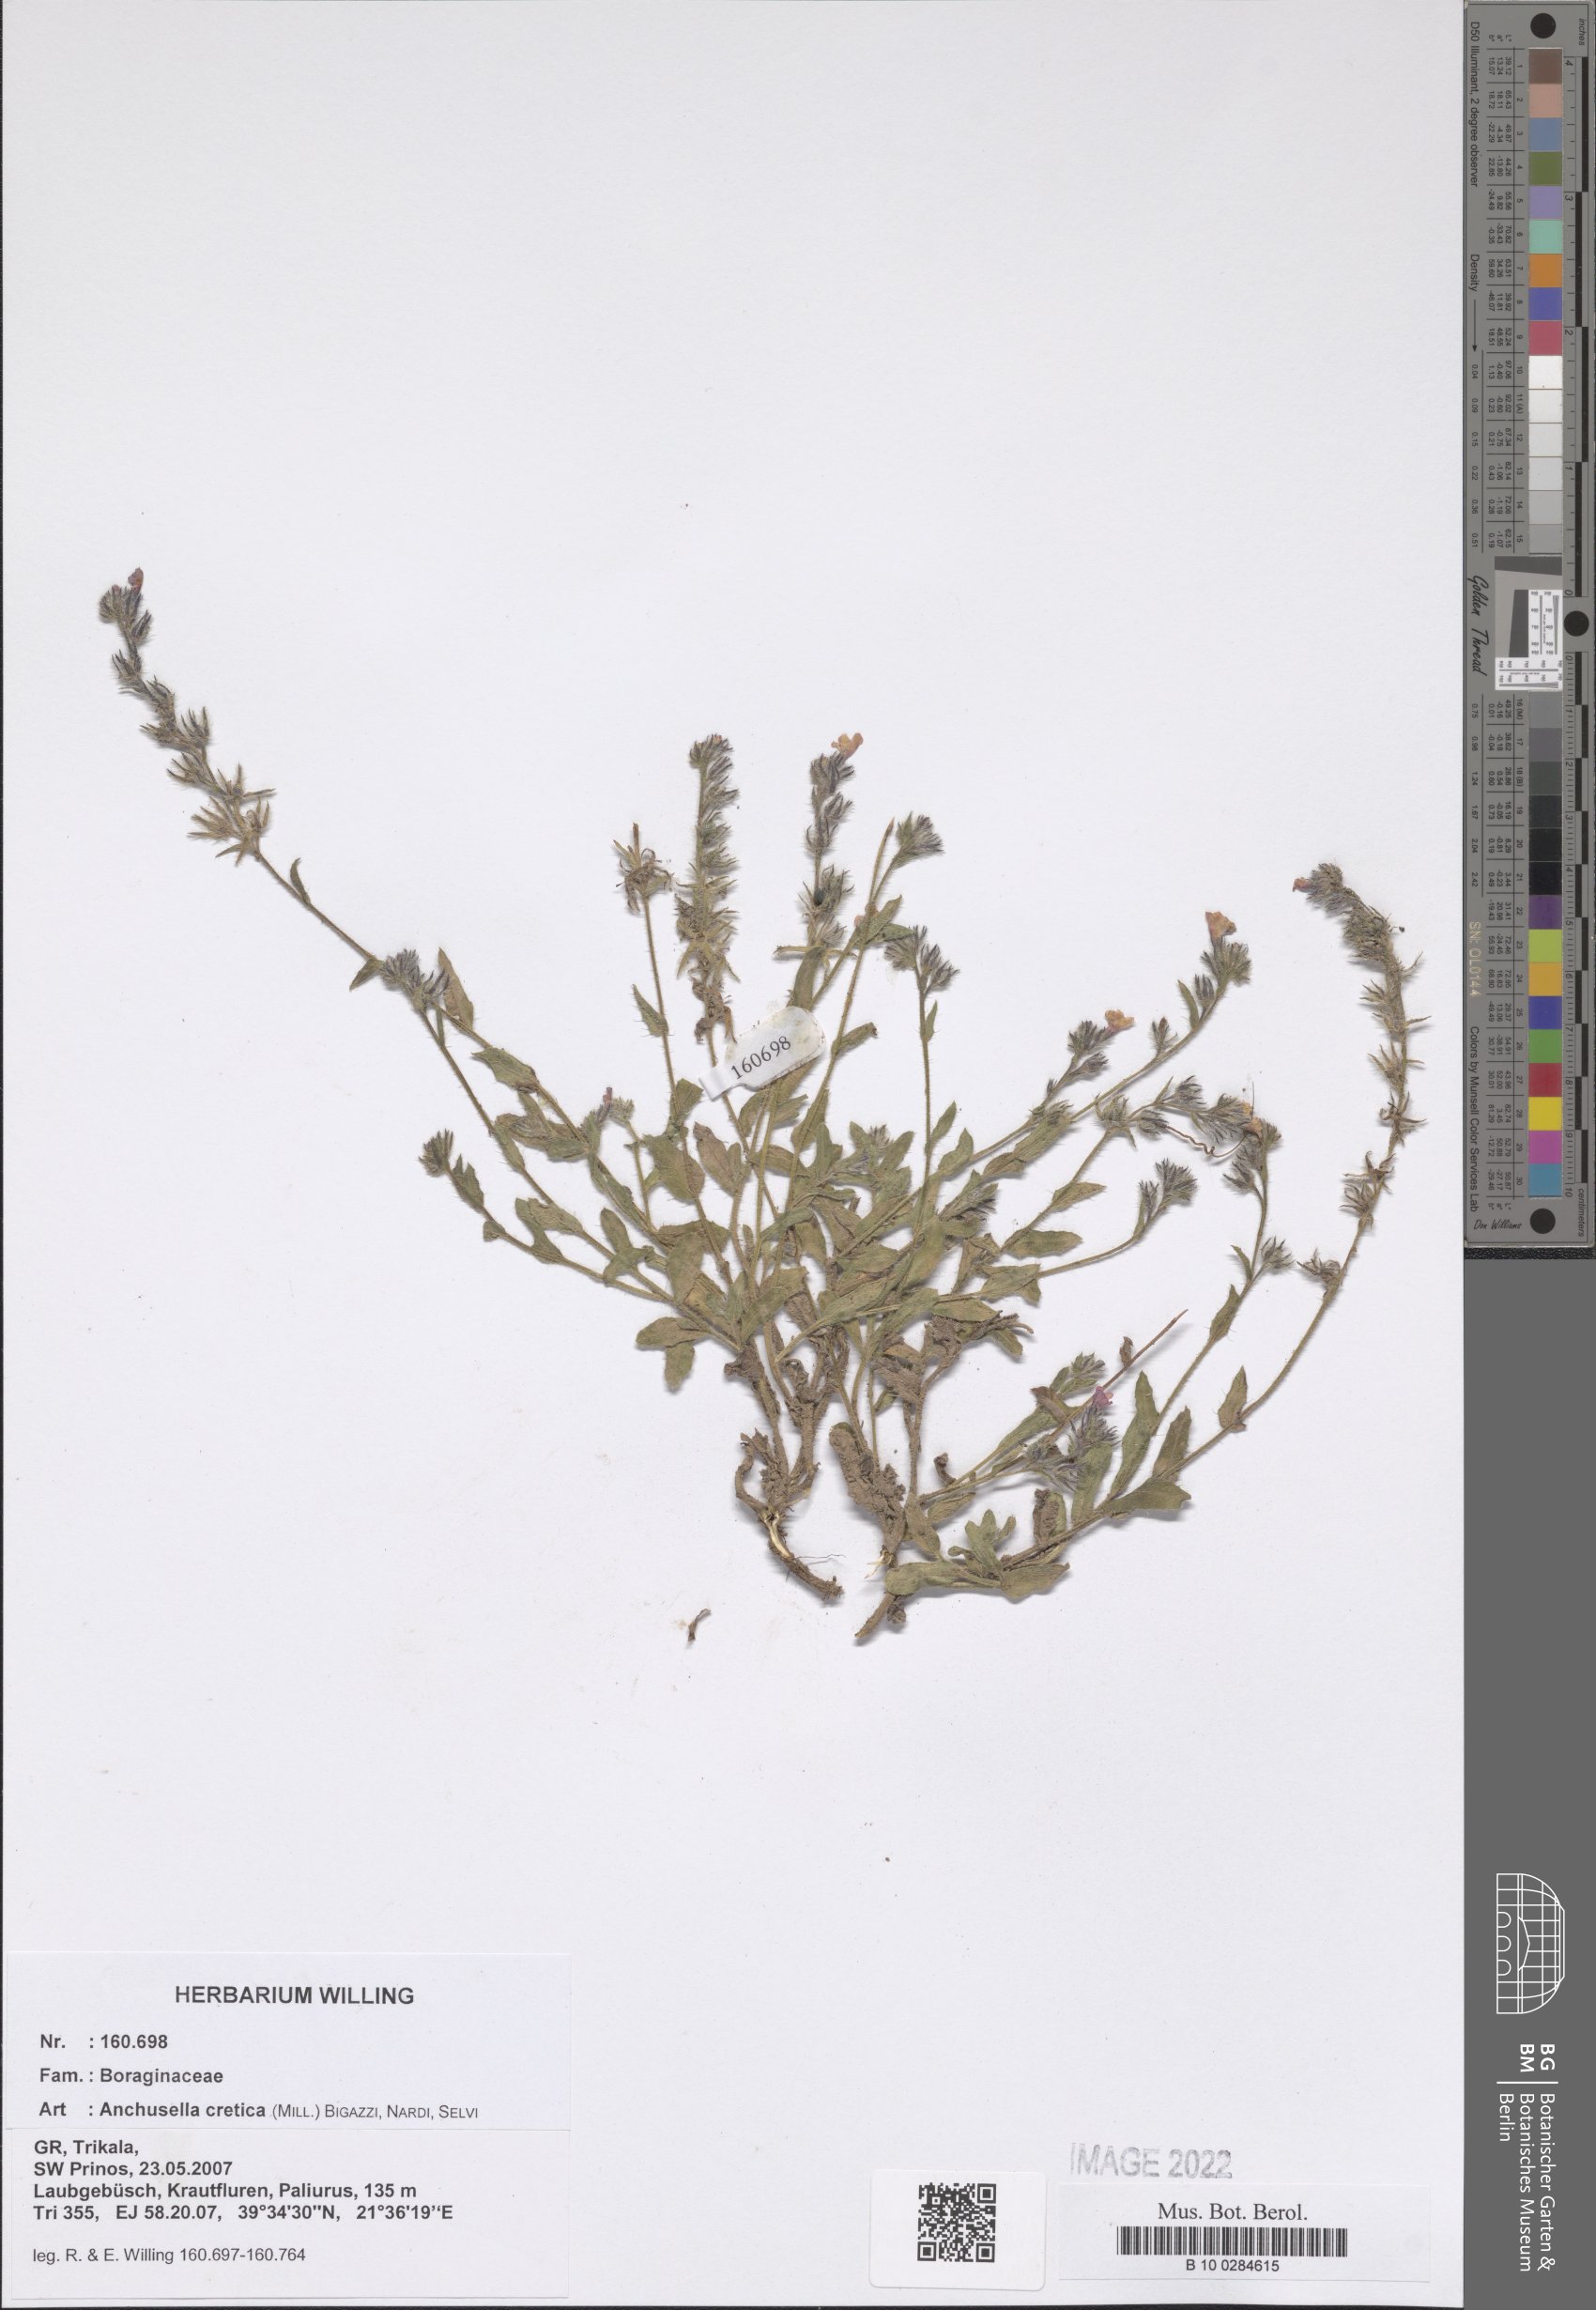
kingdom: Plantae
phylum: Tracheophyta
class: Magnoliopsida
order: Boraginales
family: Boraginaceae
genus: Lycopsis
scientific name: Lycopsis arvensis
